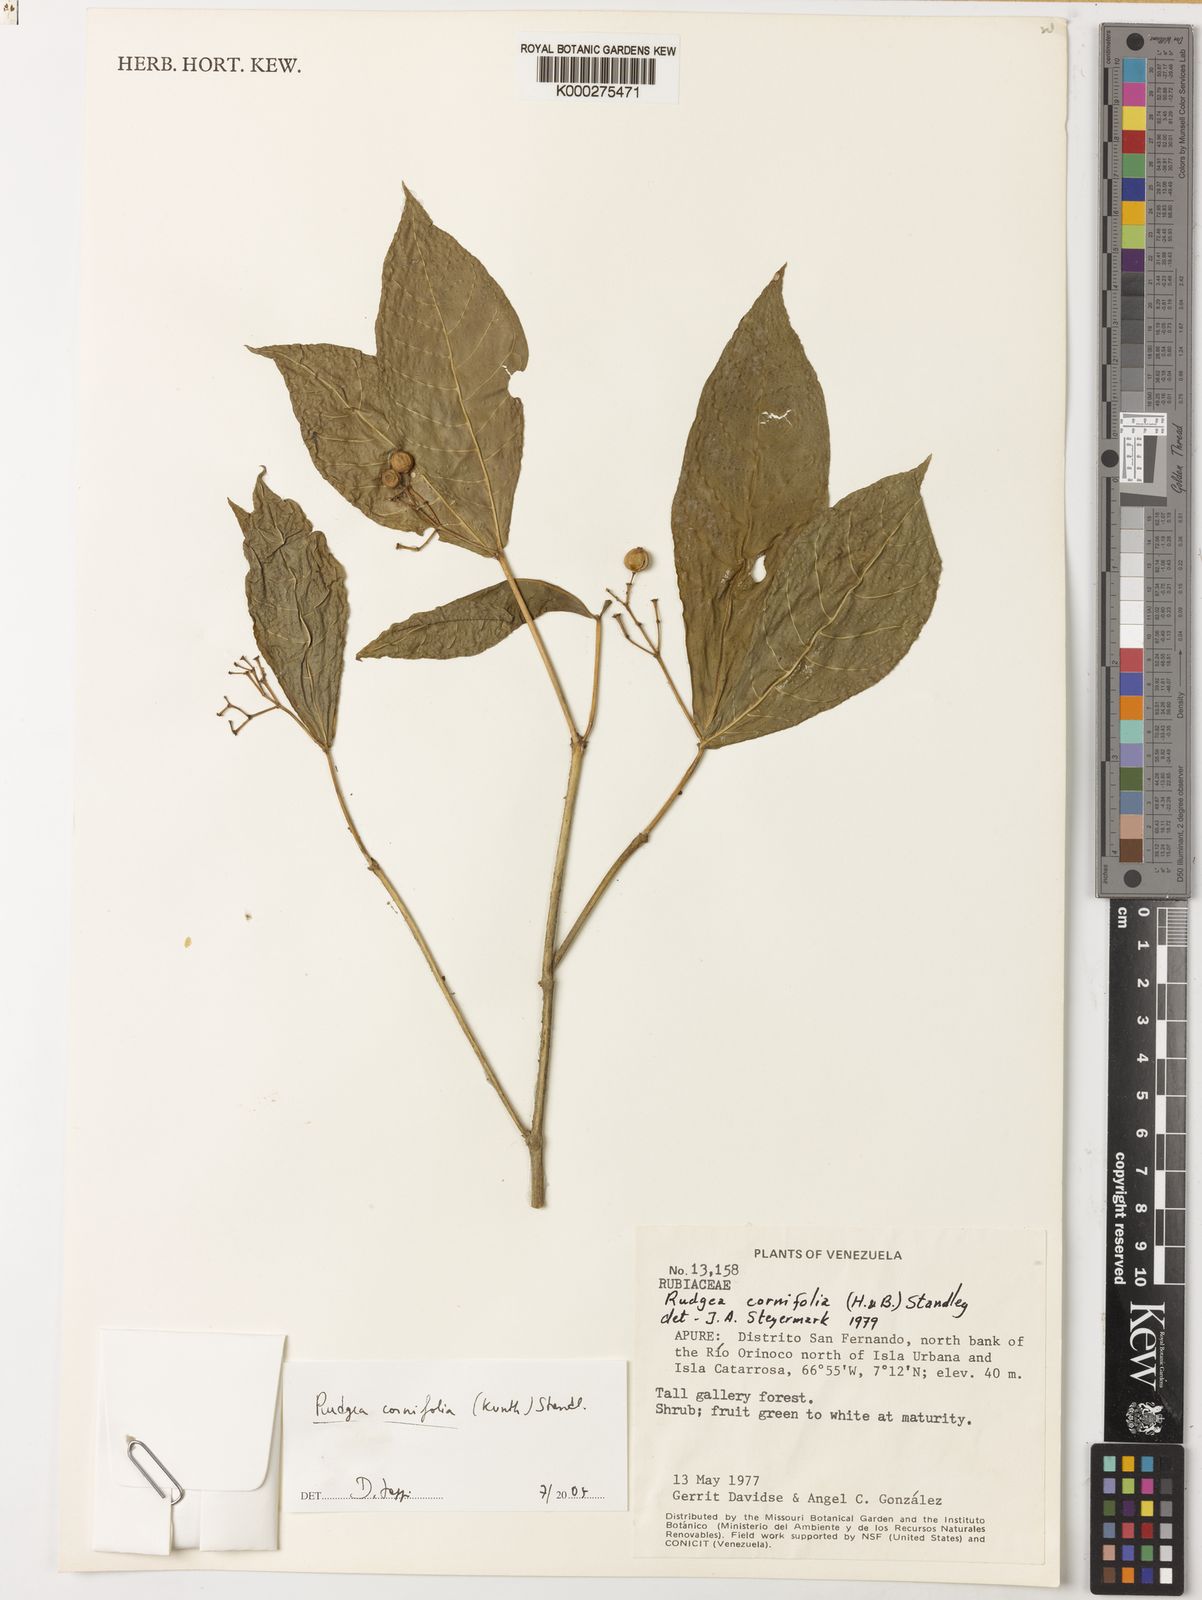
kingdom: Plantae
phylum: Tracheophyta
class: Magnoliopsida
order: Gentianales
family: Rubiaceae
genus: Rudgea
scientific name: Rudgea cornifolia
